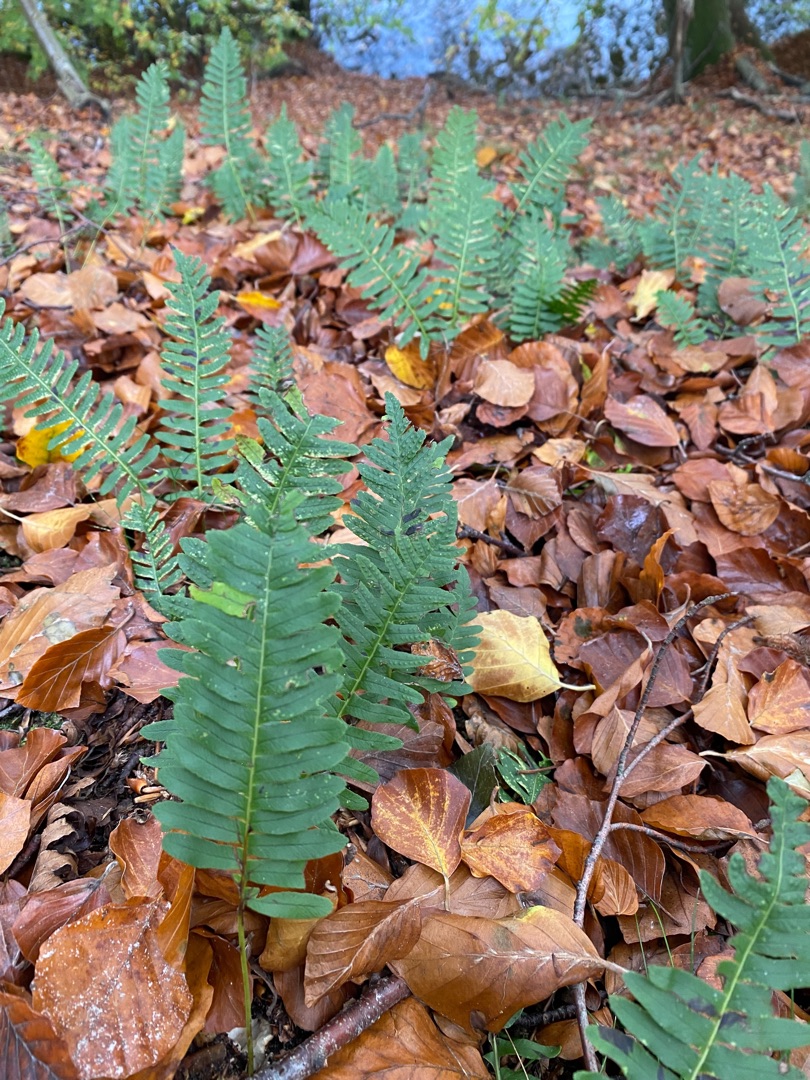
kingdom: Plantae
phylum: Tracheophyta
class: Polypodiopsida
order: Polypodiales
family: Polypodiaceae
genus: Polypodium
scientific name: Polypodium vulgare
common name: Almindelig engelsød
